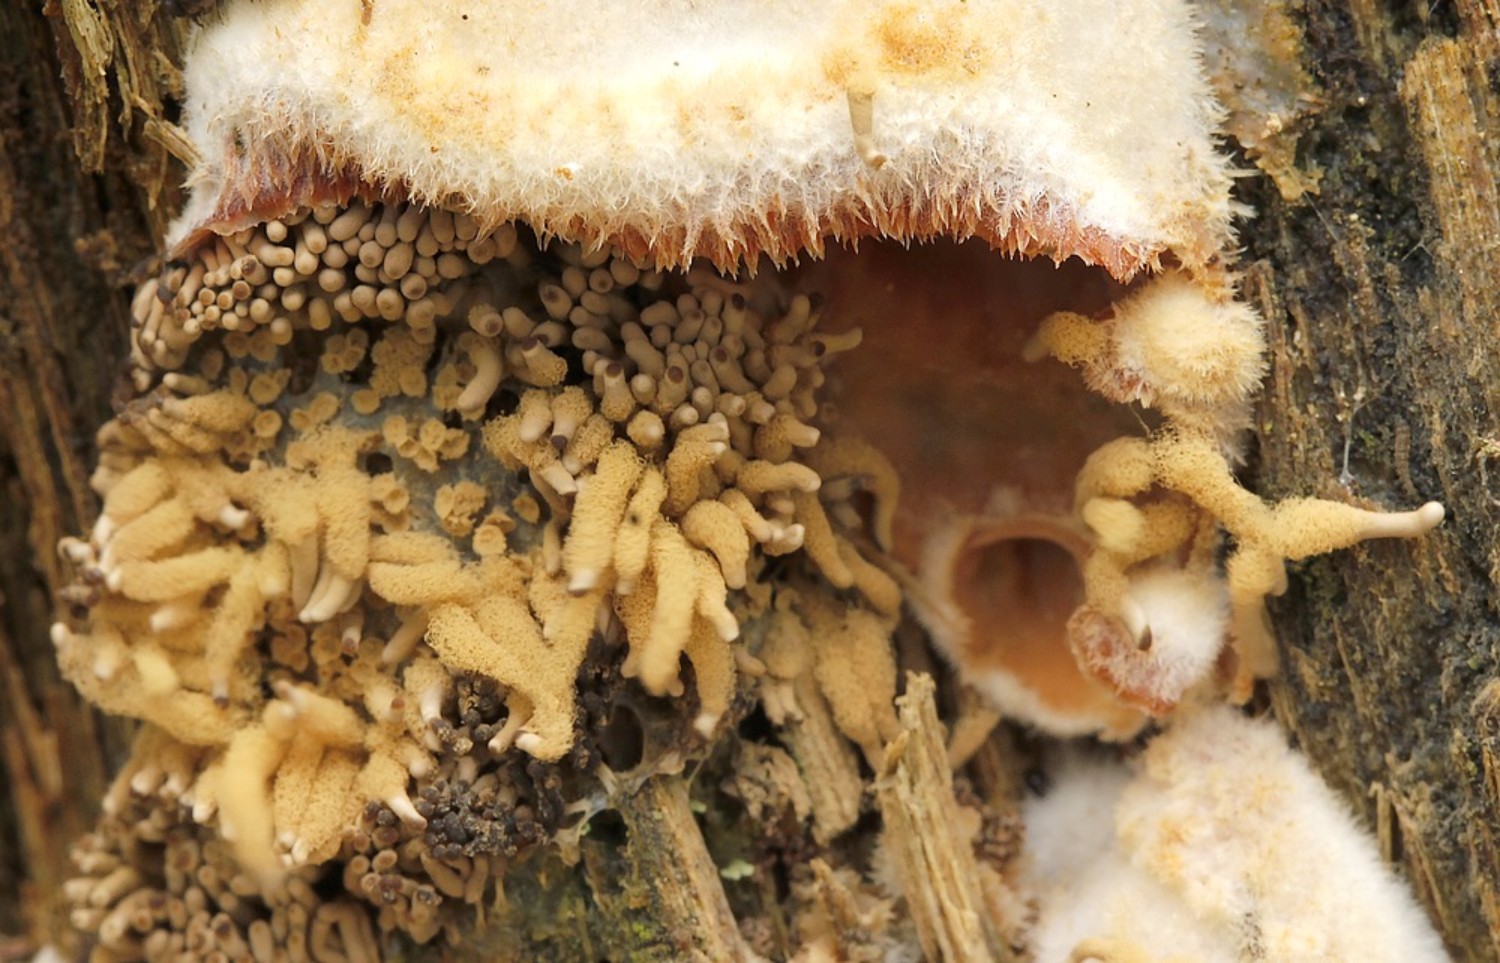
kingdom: Protozoa
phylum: Mycetozoa
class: Myxomycetes
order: Trichiales
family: Arcyriaceae
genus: Arcyria
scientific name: Arcyria obvelata
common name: okkergul skålsvøb
